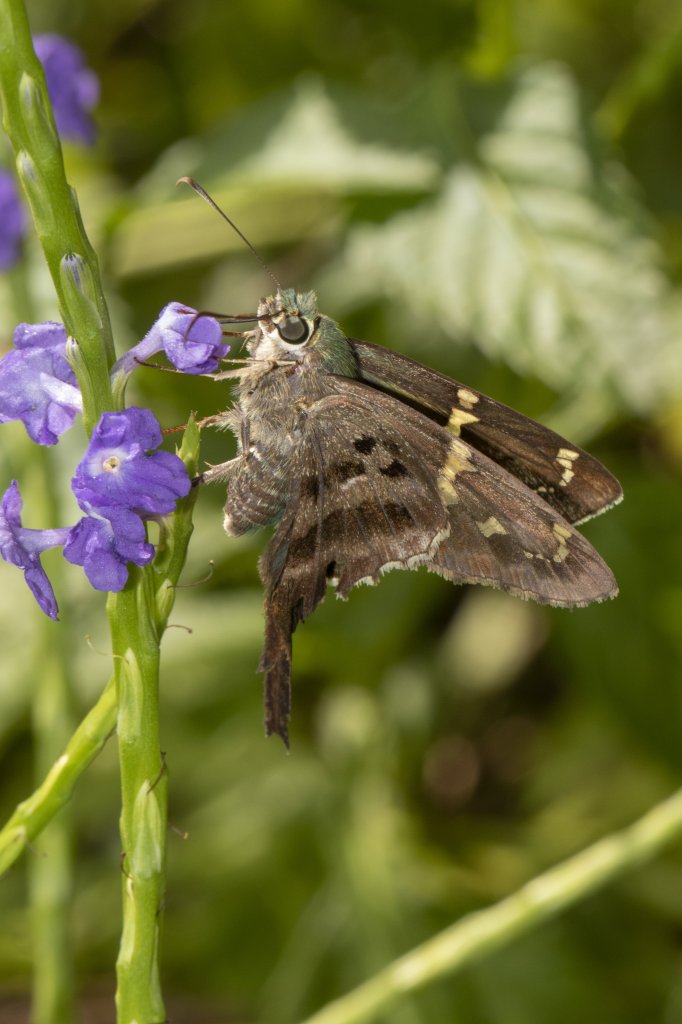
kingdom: Animalia
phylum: Arthropoda
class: Insecta
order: Lepidoptera
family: Hesperiidae
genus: Urbanus
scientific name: Urbanus proteus
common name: Long-tailed Skipper
